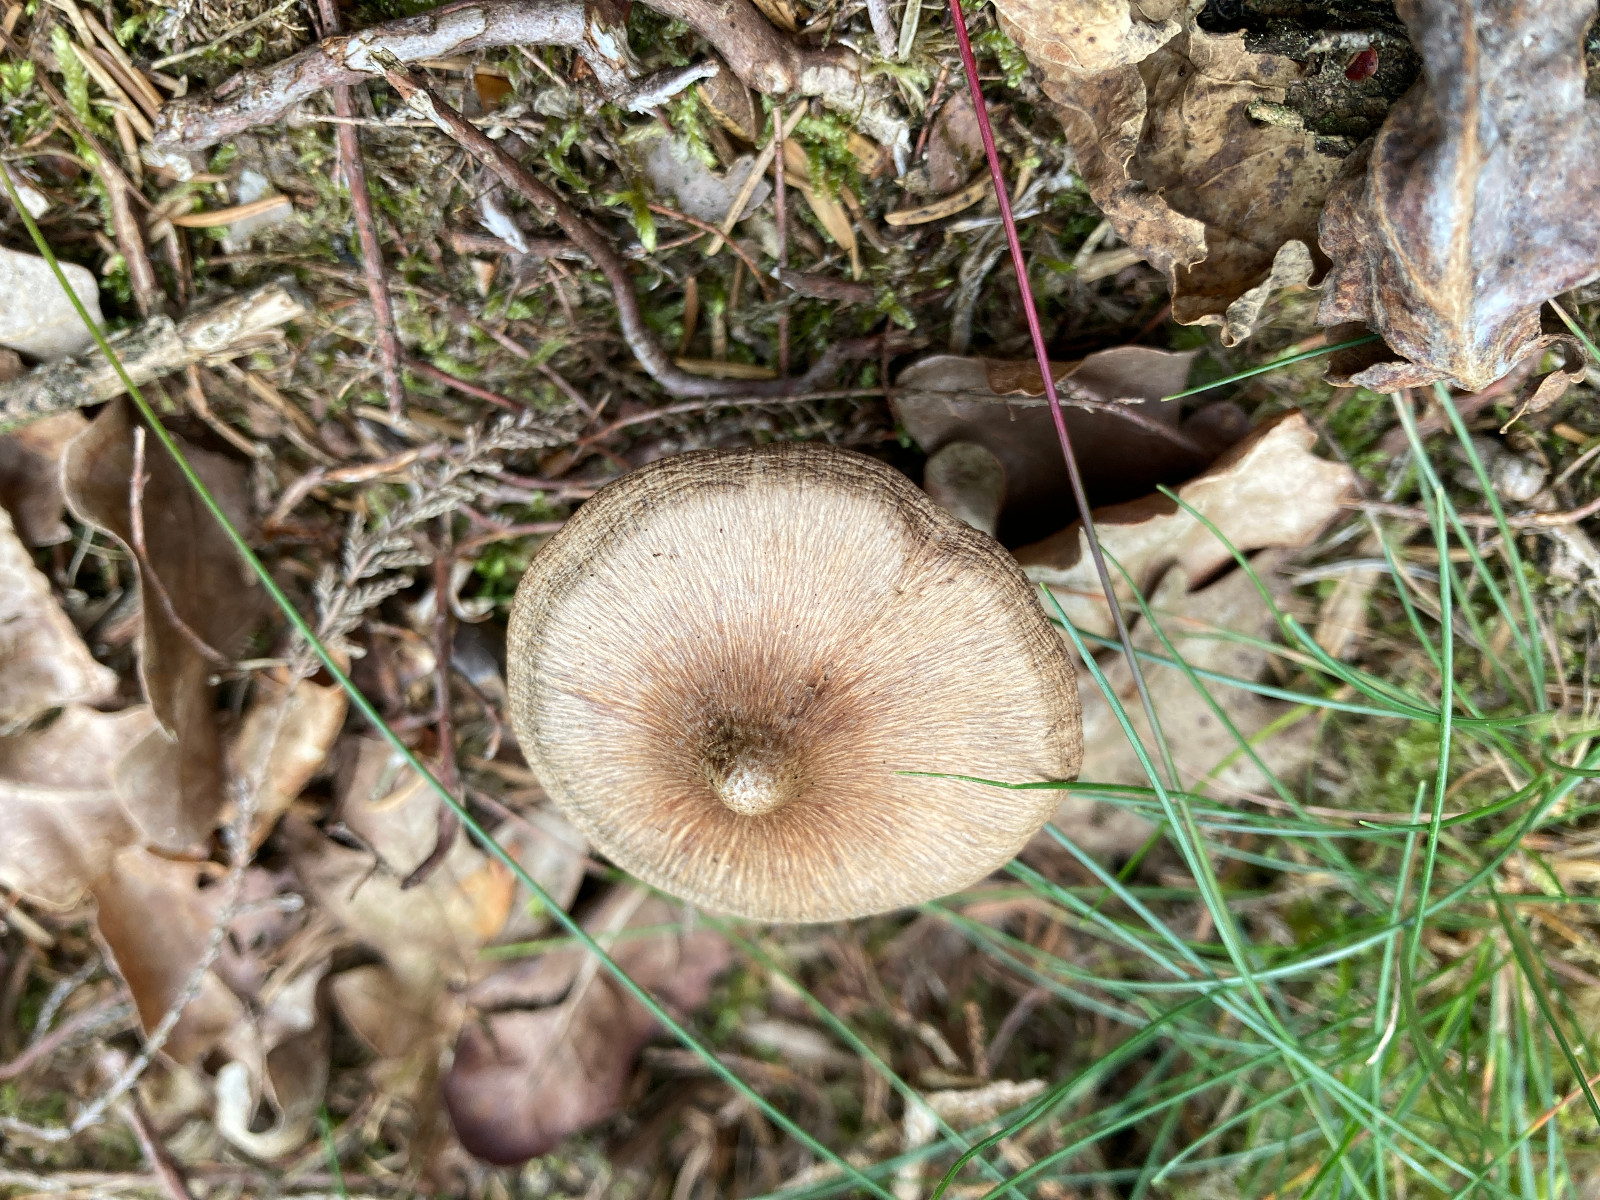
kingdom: Fungi
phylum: Basidiomycota
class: Agaricomycetes
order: Agaricales
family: Inocybaceae
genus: Inocybe
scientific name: Inocybe soluta
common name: lysbladet trævlhat
